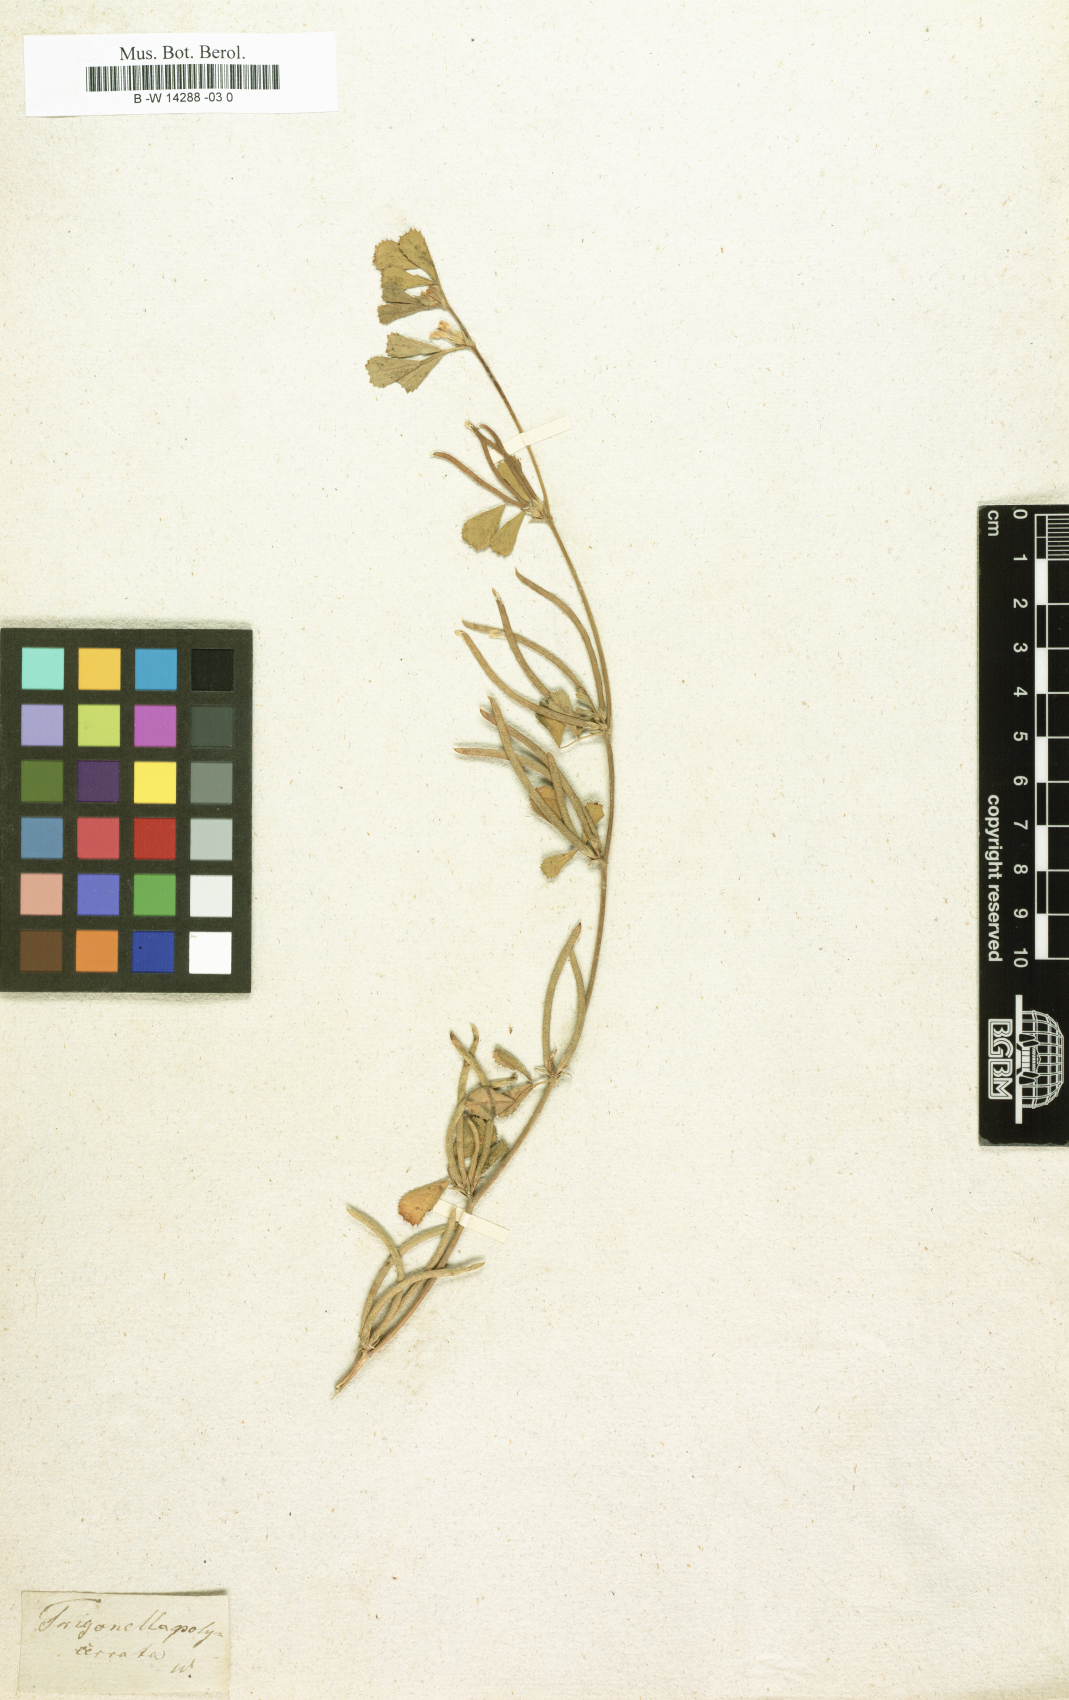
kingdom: Plantae
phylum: Tracheophyta
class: Magnoliopsida
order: Fabales
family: Fabaceae
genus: Medicago
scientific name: Medicago orthoceras
